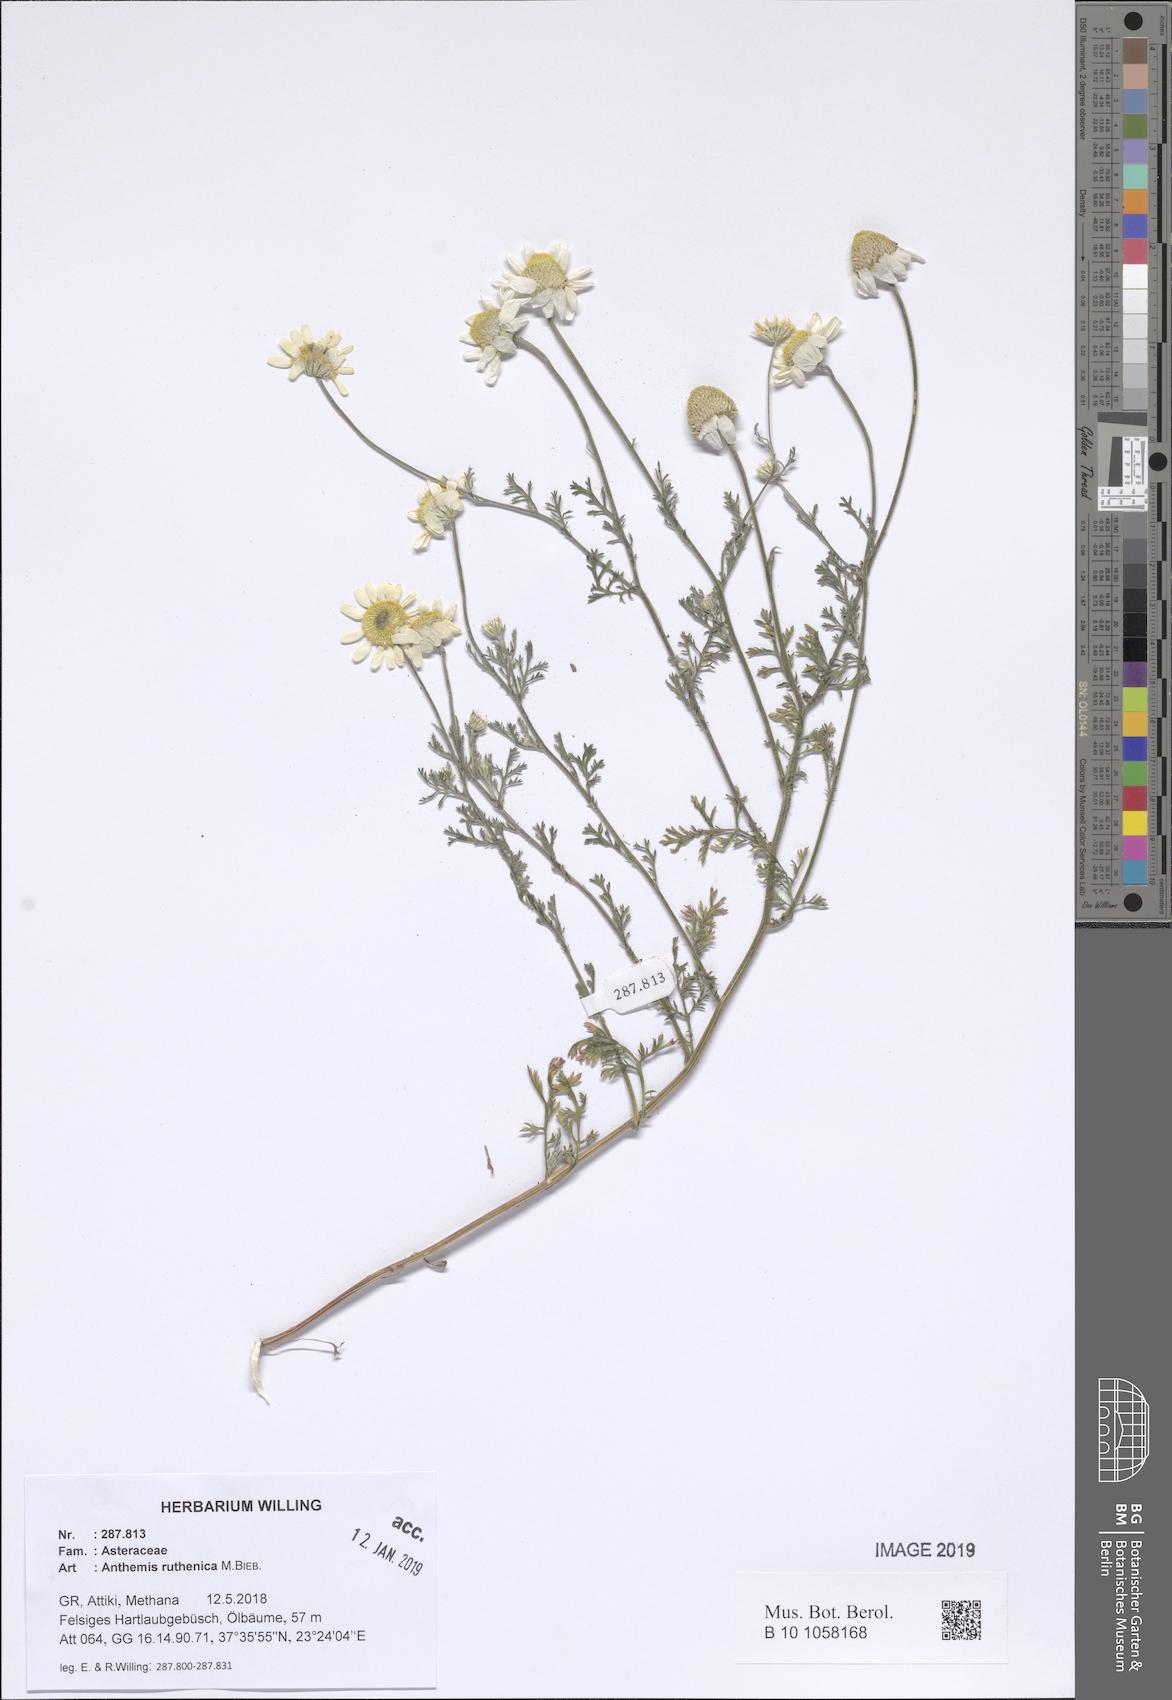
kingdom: Plantae
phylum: Tracheophyta
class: Magnoliopsida
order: Asterales
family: Asteraceae
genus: Anthemis
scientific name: Anthemis ruthenica
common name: Eastern chamomile
